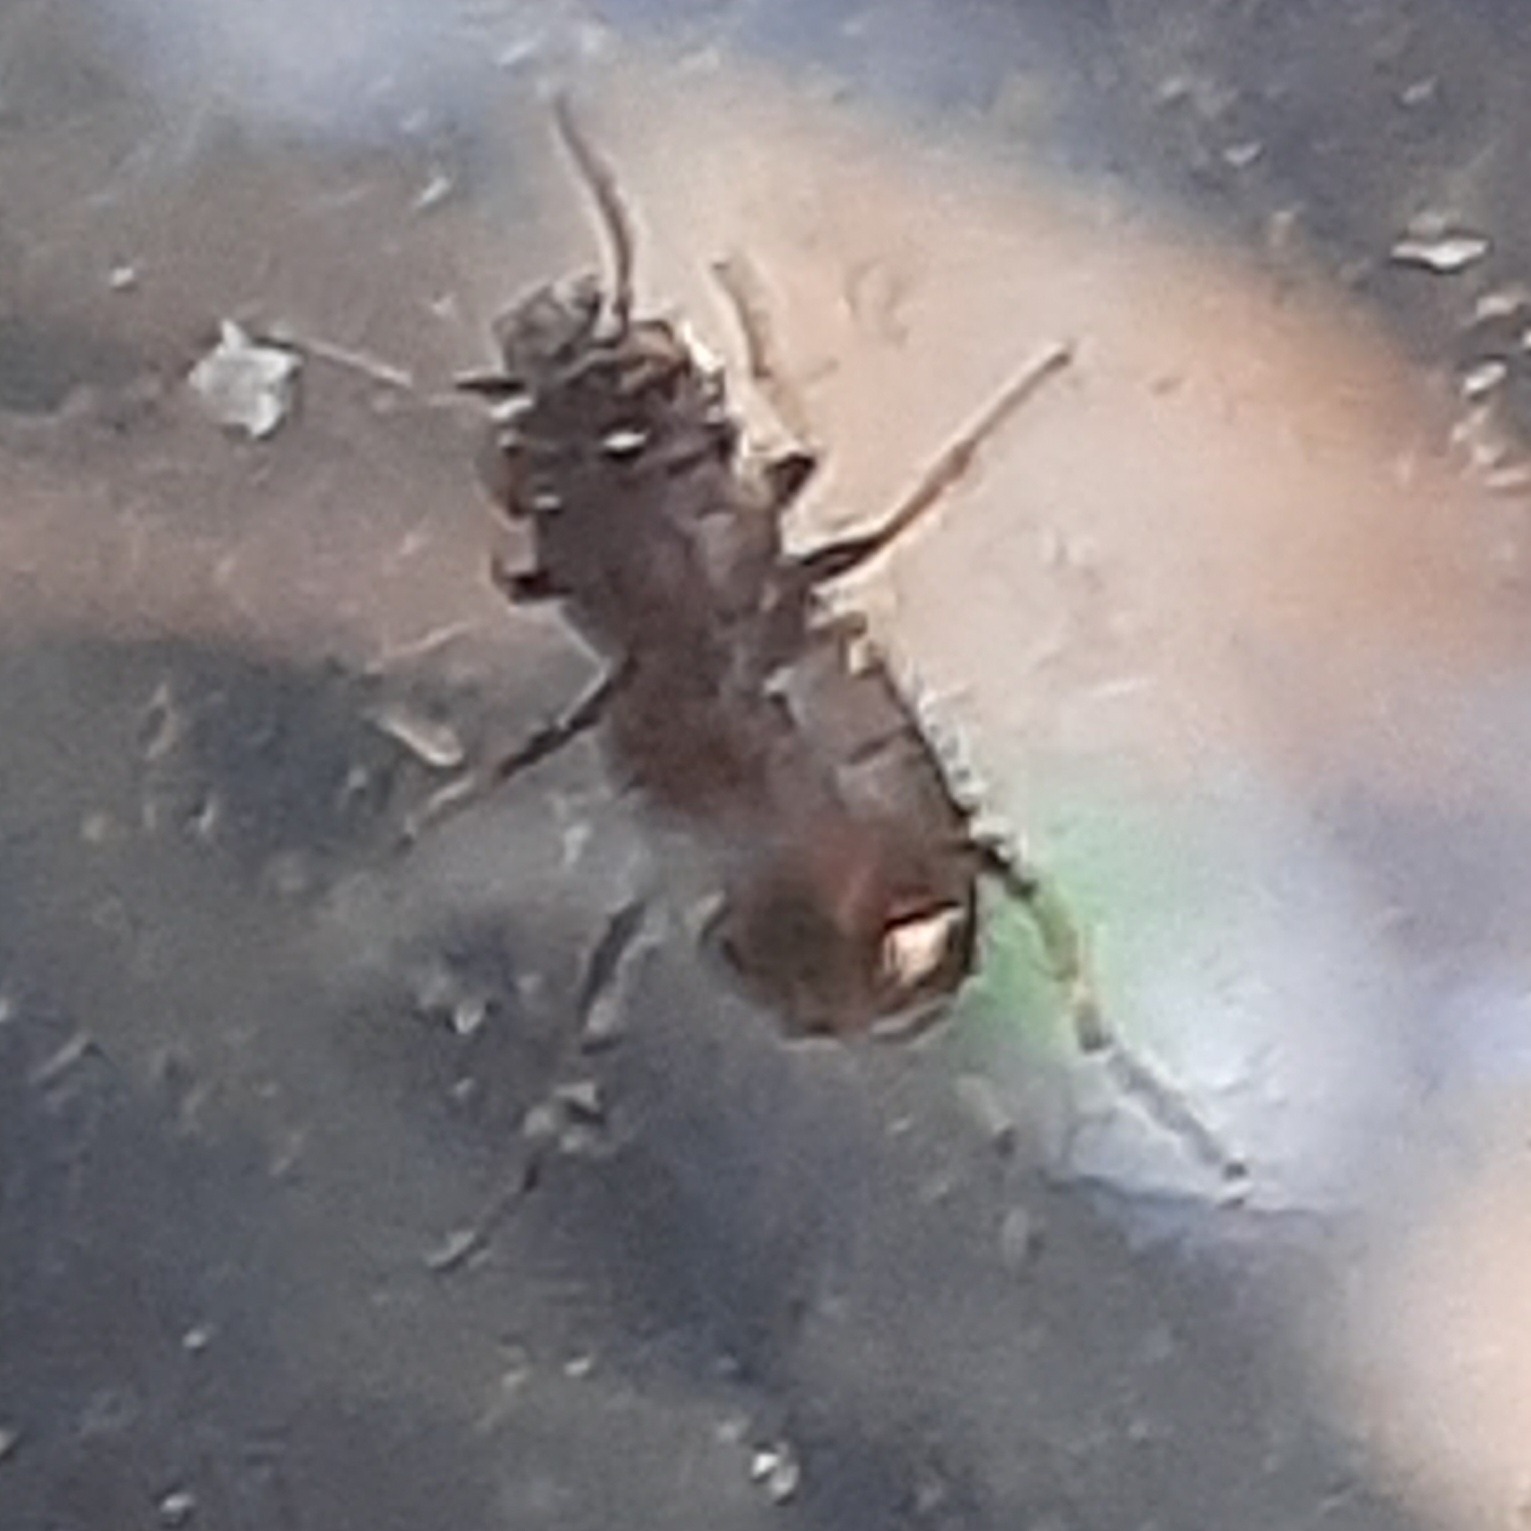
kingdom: Animalia
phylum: Arthropoda
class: Insecta
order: Coleoptera
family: Carabidae
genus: Notiophilus
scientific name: Notiophilus biguttatus
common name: Toplettet spejlløber
